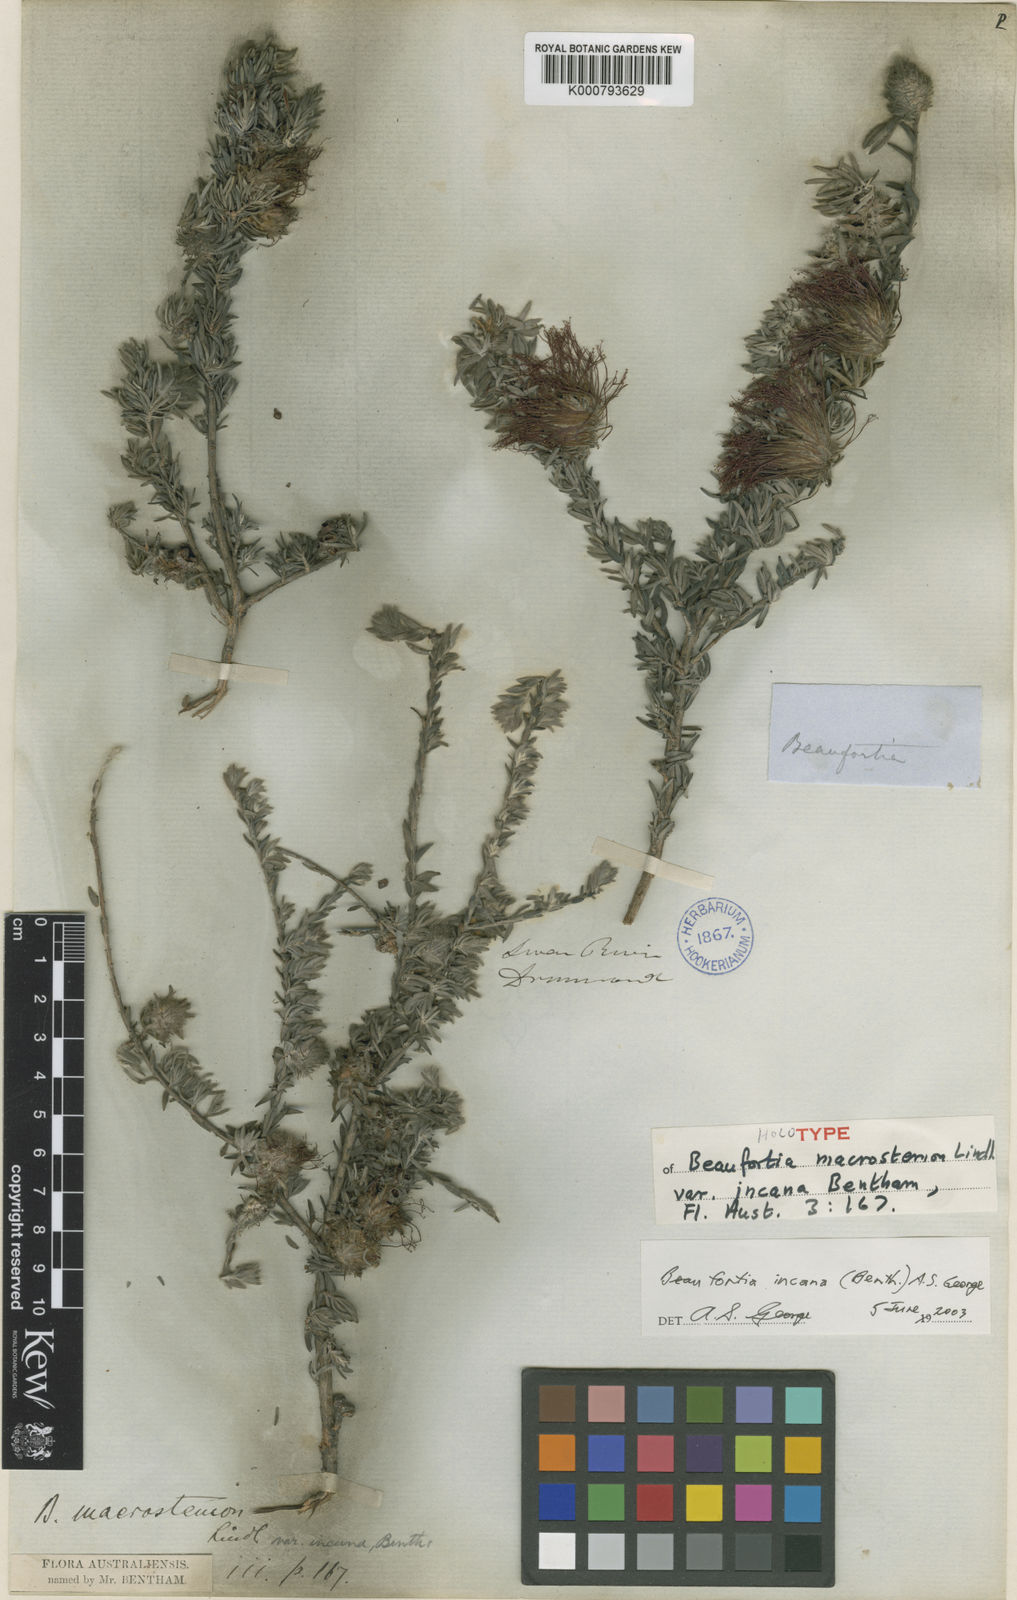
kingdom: Plantae
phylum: Tracheophyta
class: Magnoliopsida
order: Myrtales
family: Myrtaceae
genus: Melaleuca
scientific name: Melaleuca cinerea
